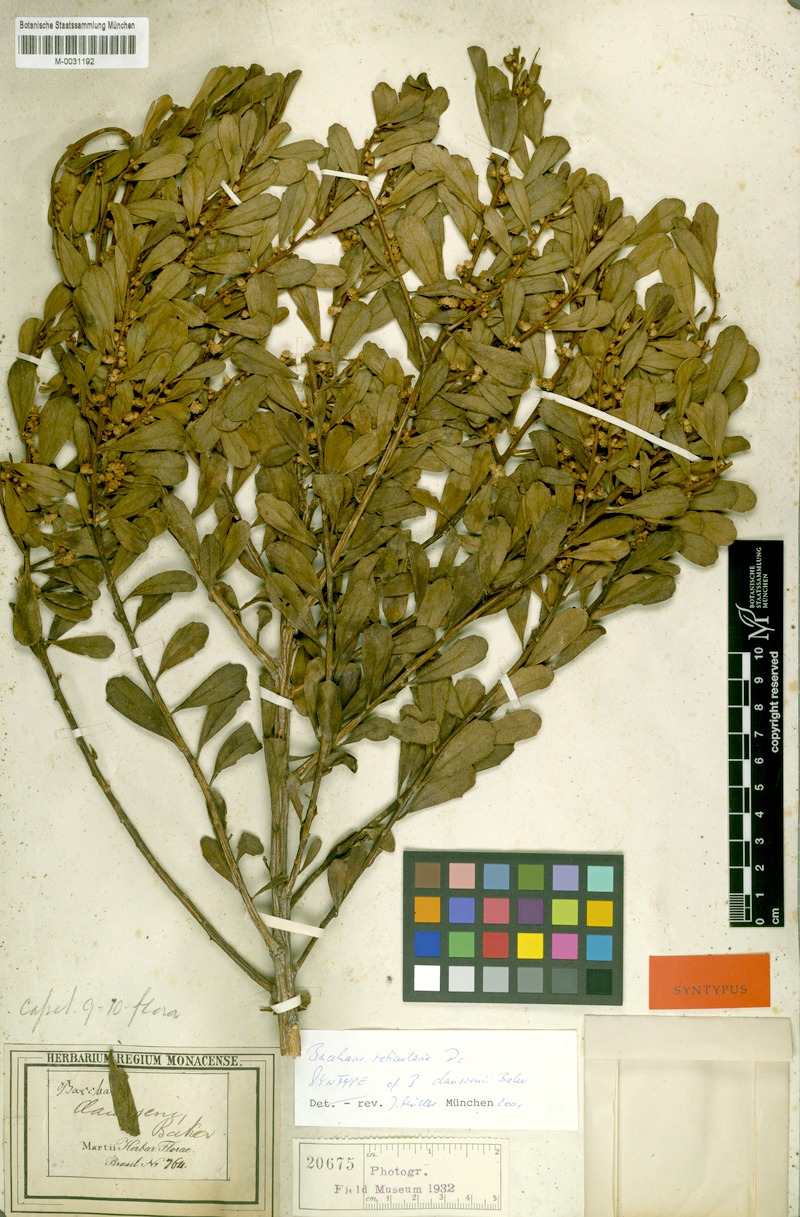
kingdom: Plantae
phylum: Tracheophyta
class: Magnoliopsida
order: Asterales
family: Asteraceae
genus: Baccharis
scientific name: Baccharis claussenii
